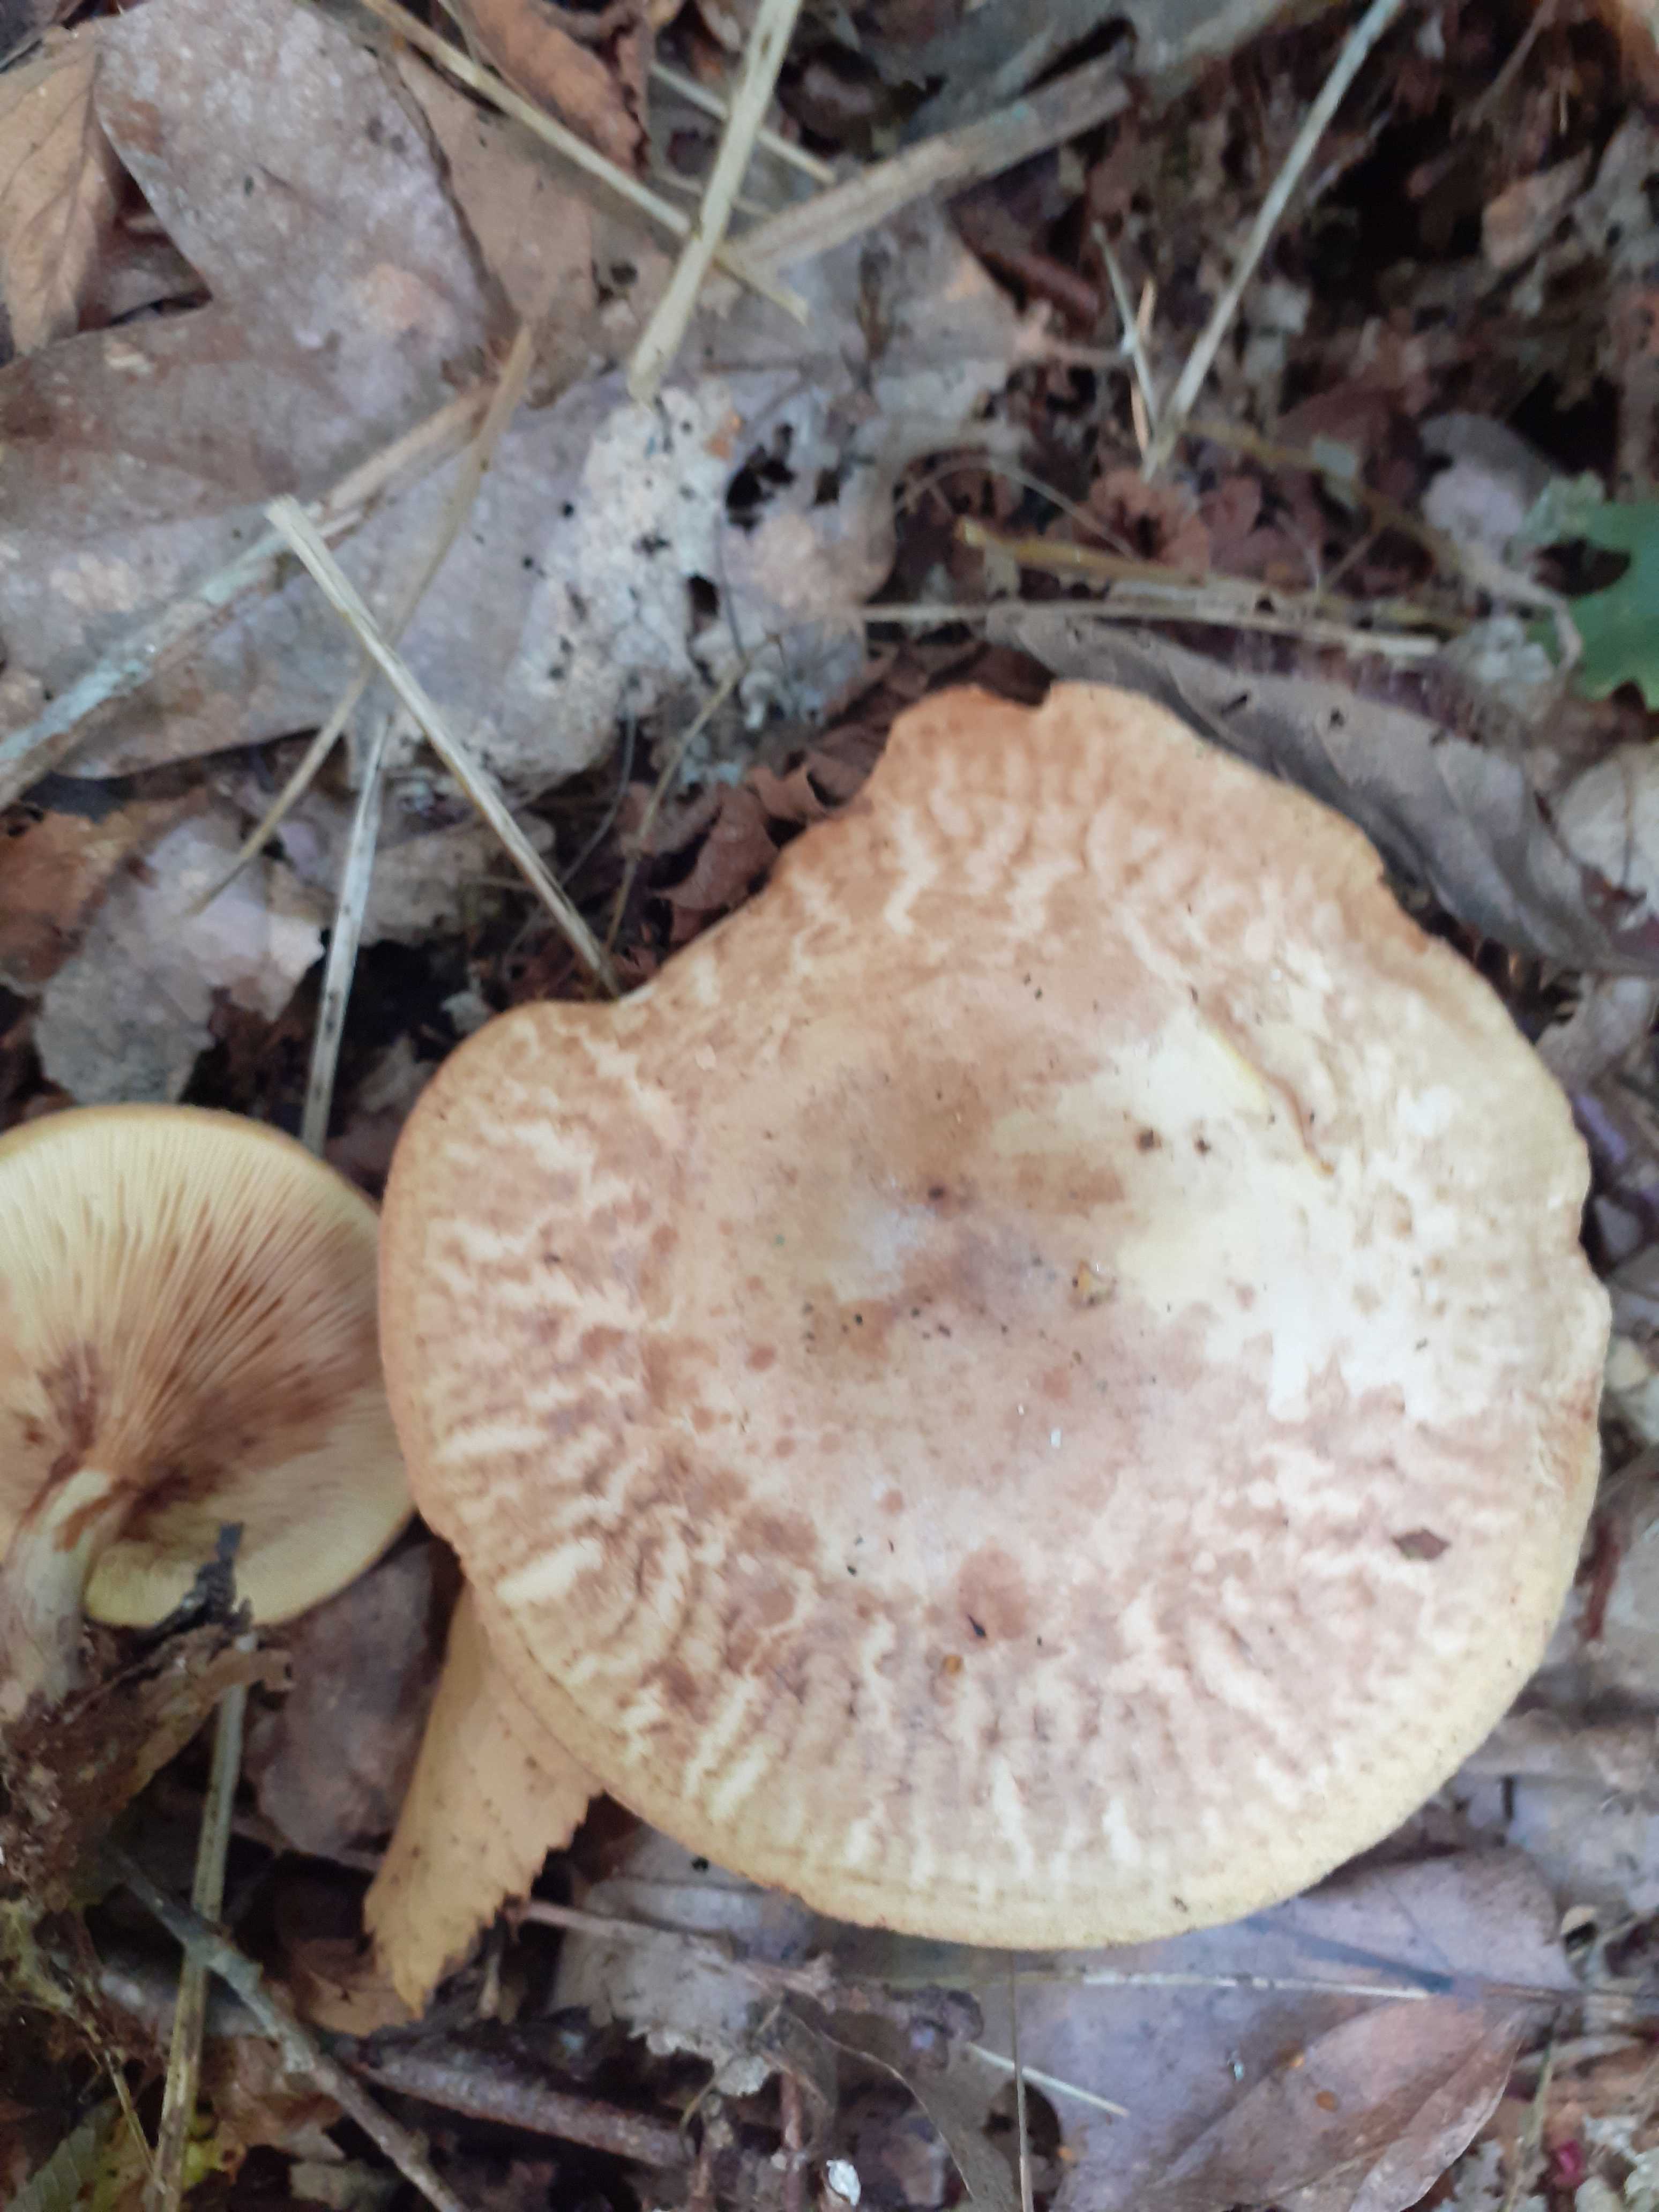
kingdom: Fungi
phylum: Basidiomycota
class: Agaricomycetes
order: Boletales
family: Paxillaceae
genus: Paxillus
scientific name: Paxillus rubicundulus
